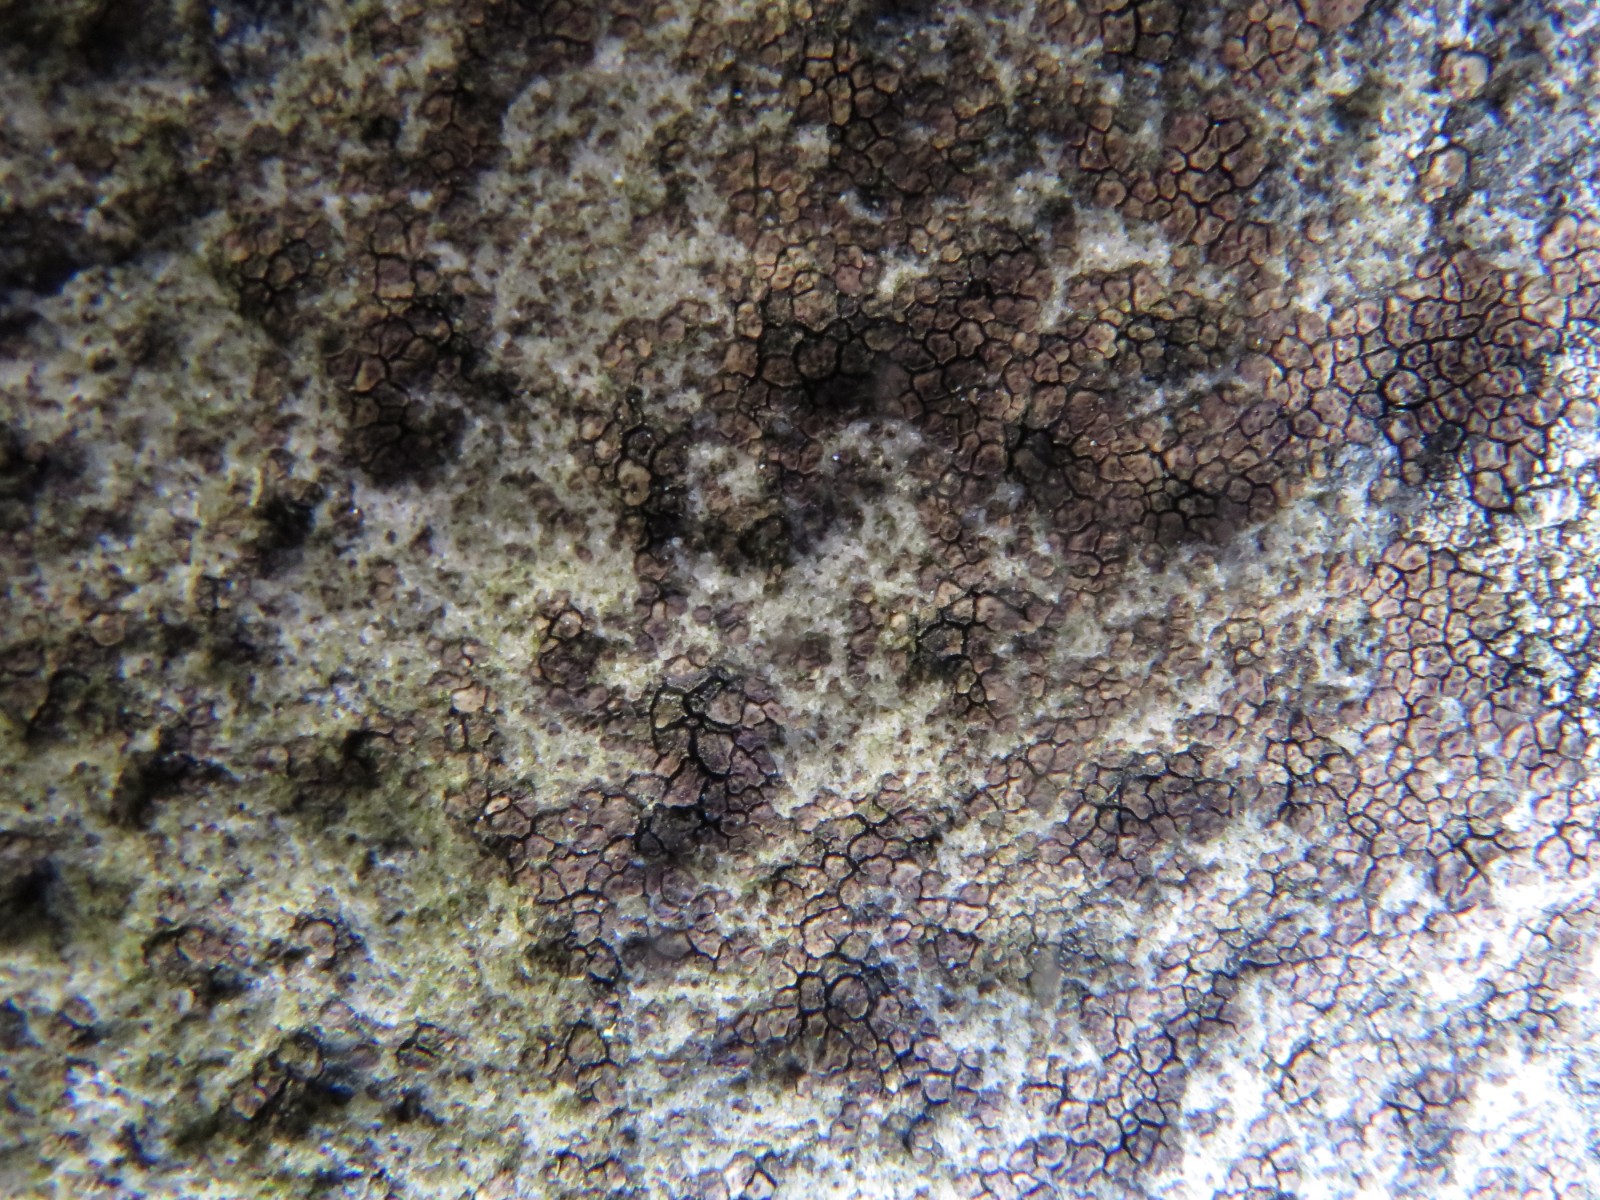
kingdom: Fungi
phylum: Ascomycota
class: Lecanoromycetes
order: Acarosporales
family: Acarosporaceae
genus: Acarospora
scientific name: Acarospora fuscata
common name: brun småsporelav
